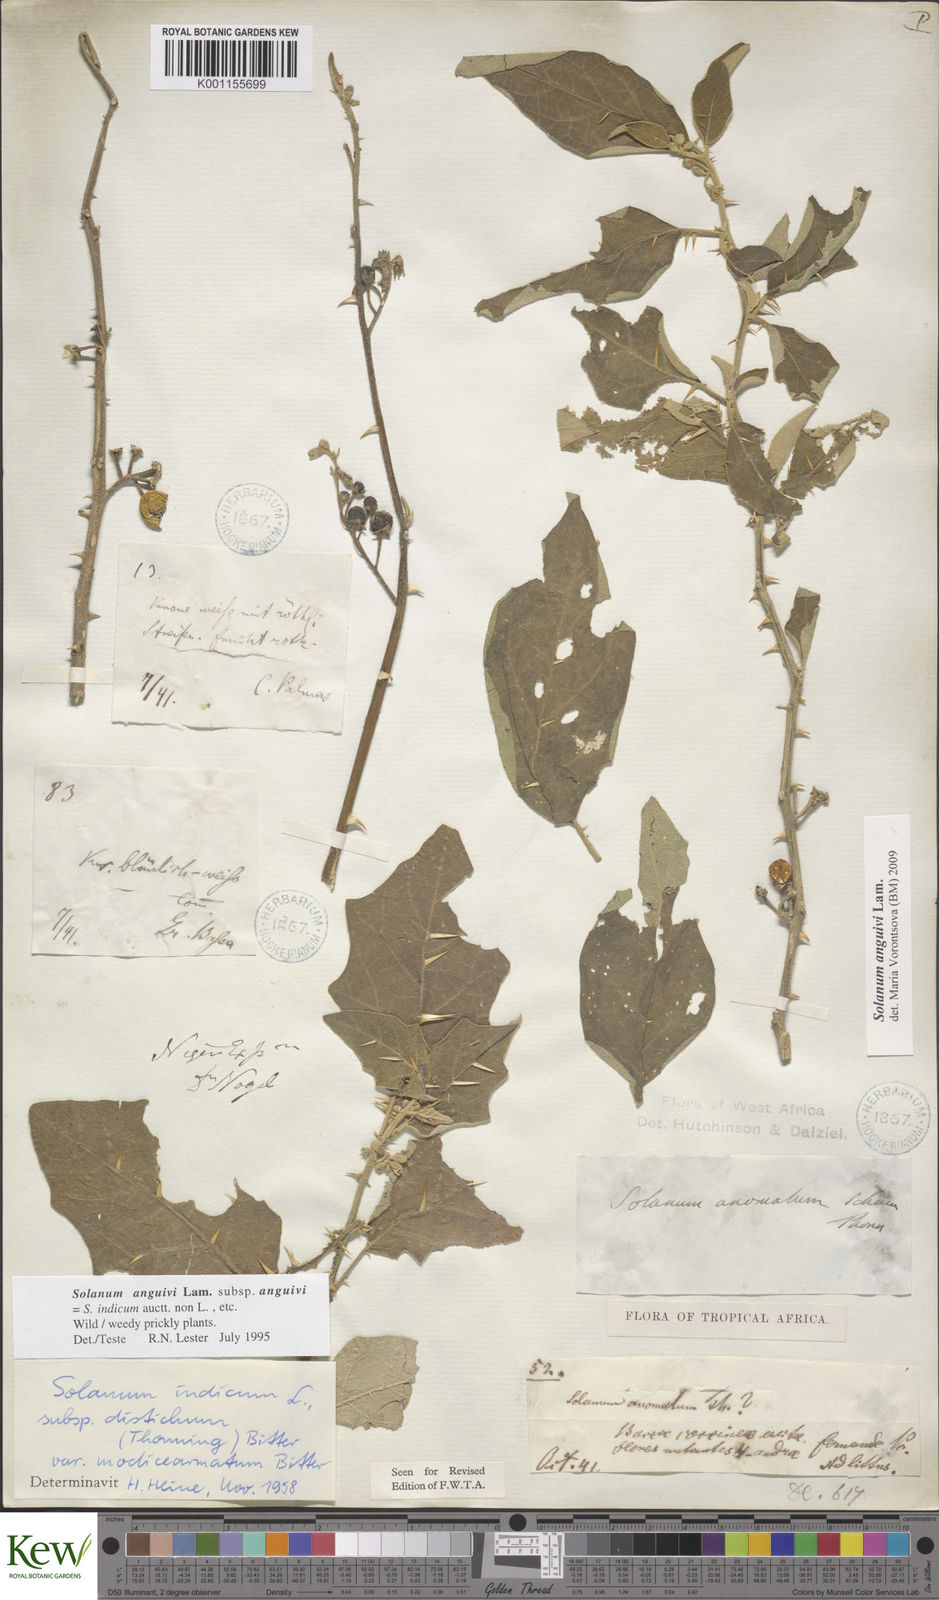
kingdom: Plantae
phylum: Tracheophyta
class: Magnoliopsida
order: Solanales
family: Solanaceae
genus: Solanum
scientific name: Solanum anguivi
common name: Forest bitterberry
